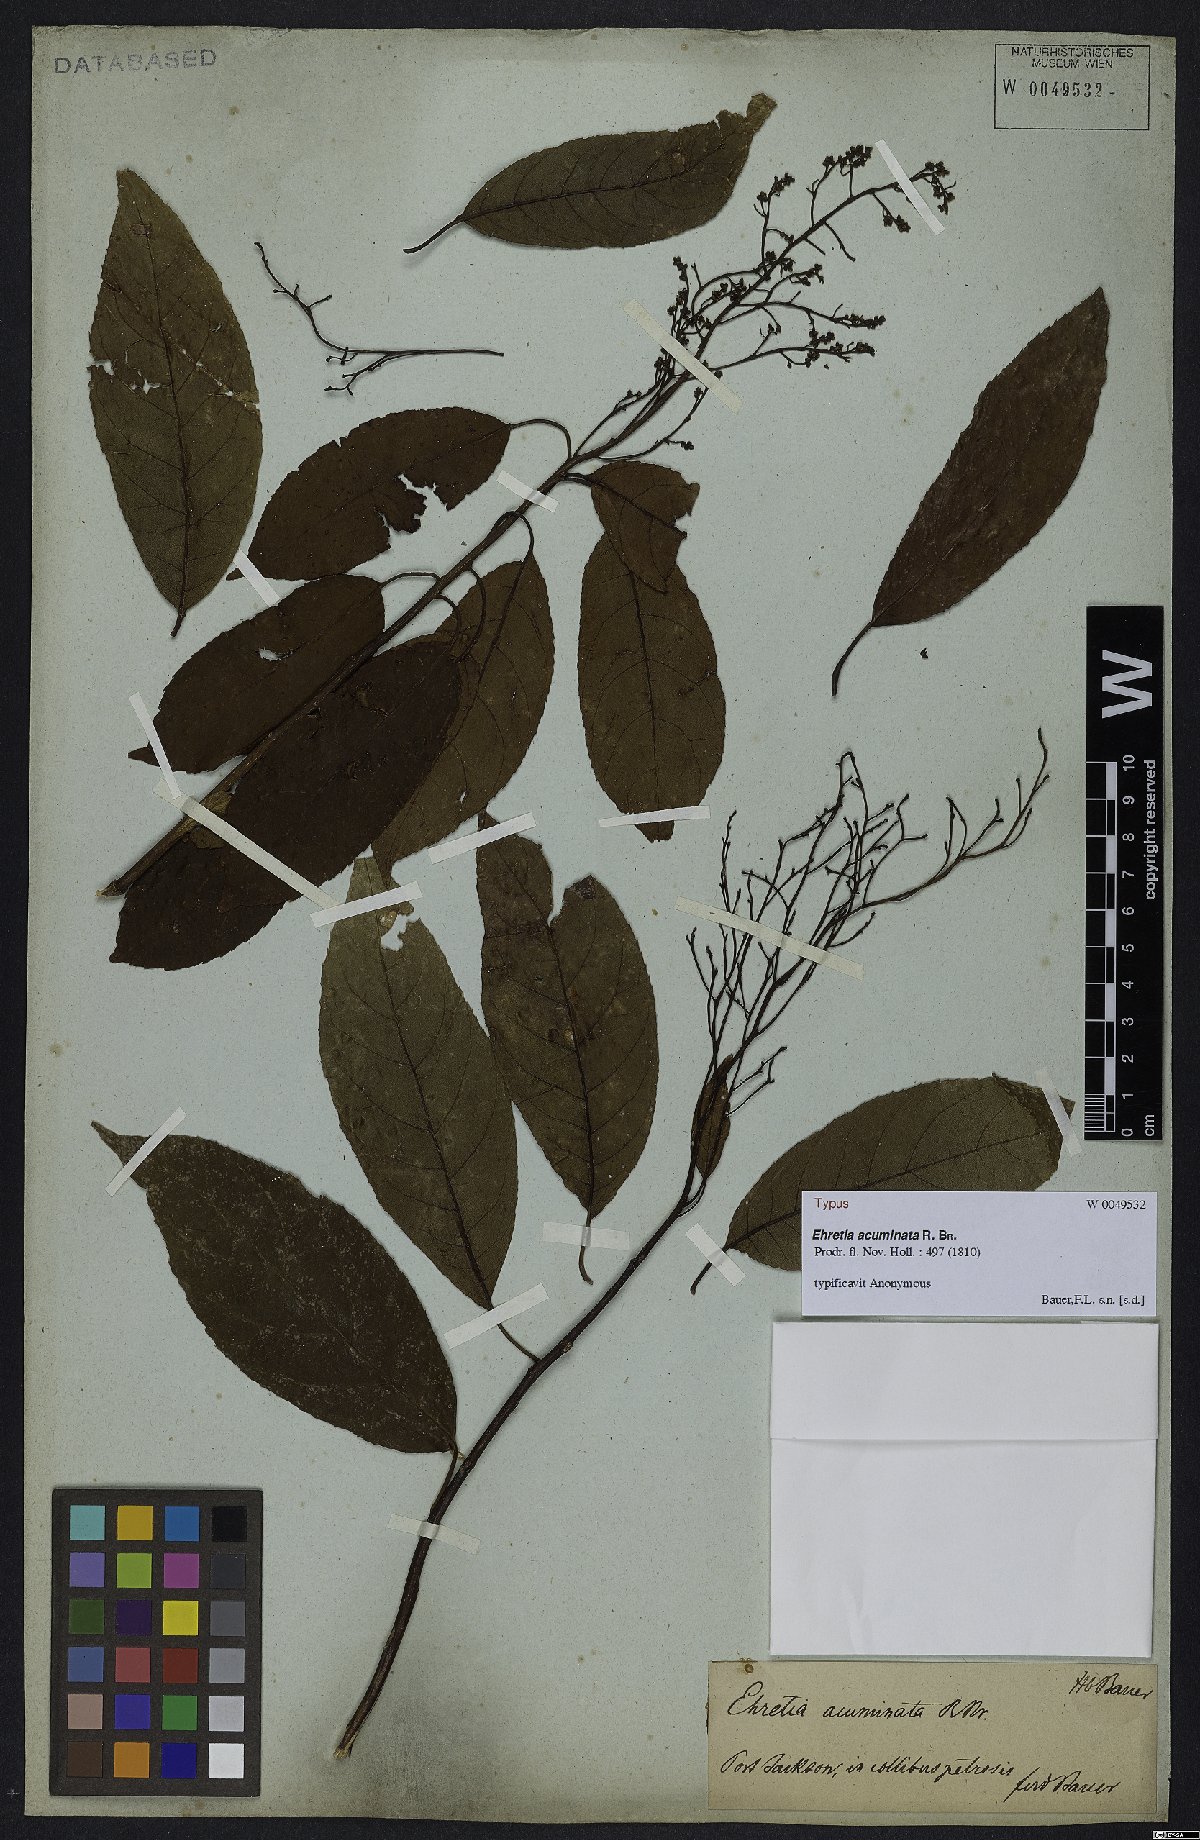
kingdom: Plantae
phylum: Tracheophyta
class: Magnoliopsida
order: Boraginales
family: Ehretiaceae
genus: Ehretia
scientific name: Ehretia acuminata
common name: Kodo wood
